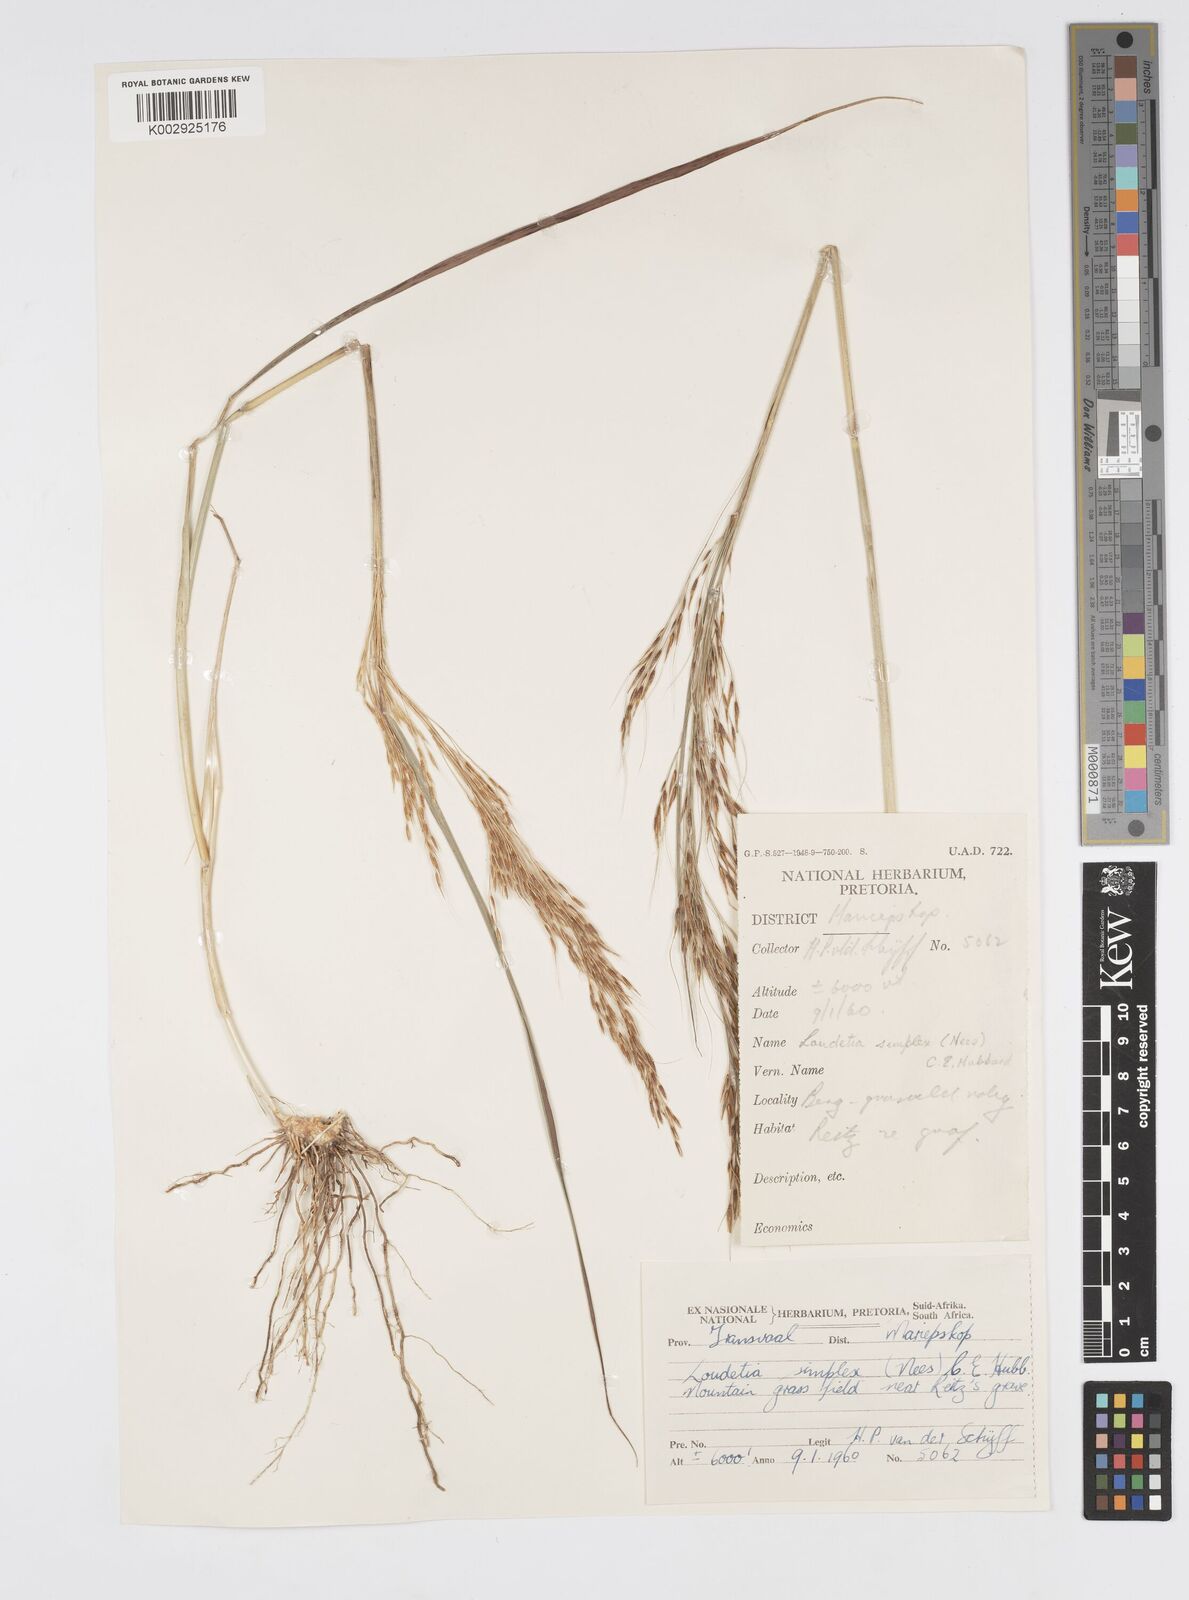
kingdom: Plantae
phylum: Tracheophyta
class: Liliopsida
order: Poales
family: Poaceae
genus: Loudetia
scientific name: Loudetia simplex
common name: Common russet grass
